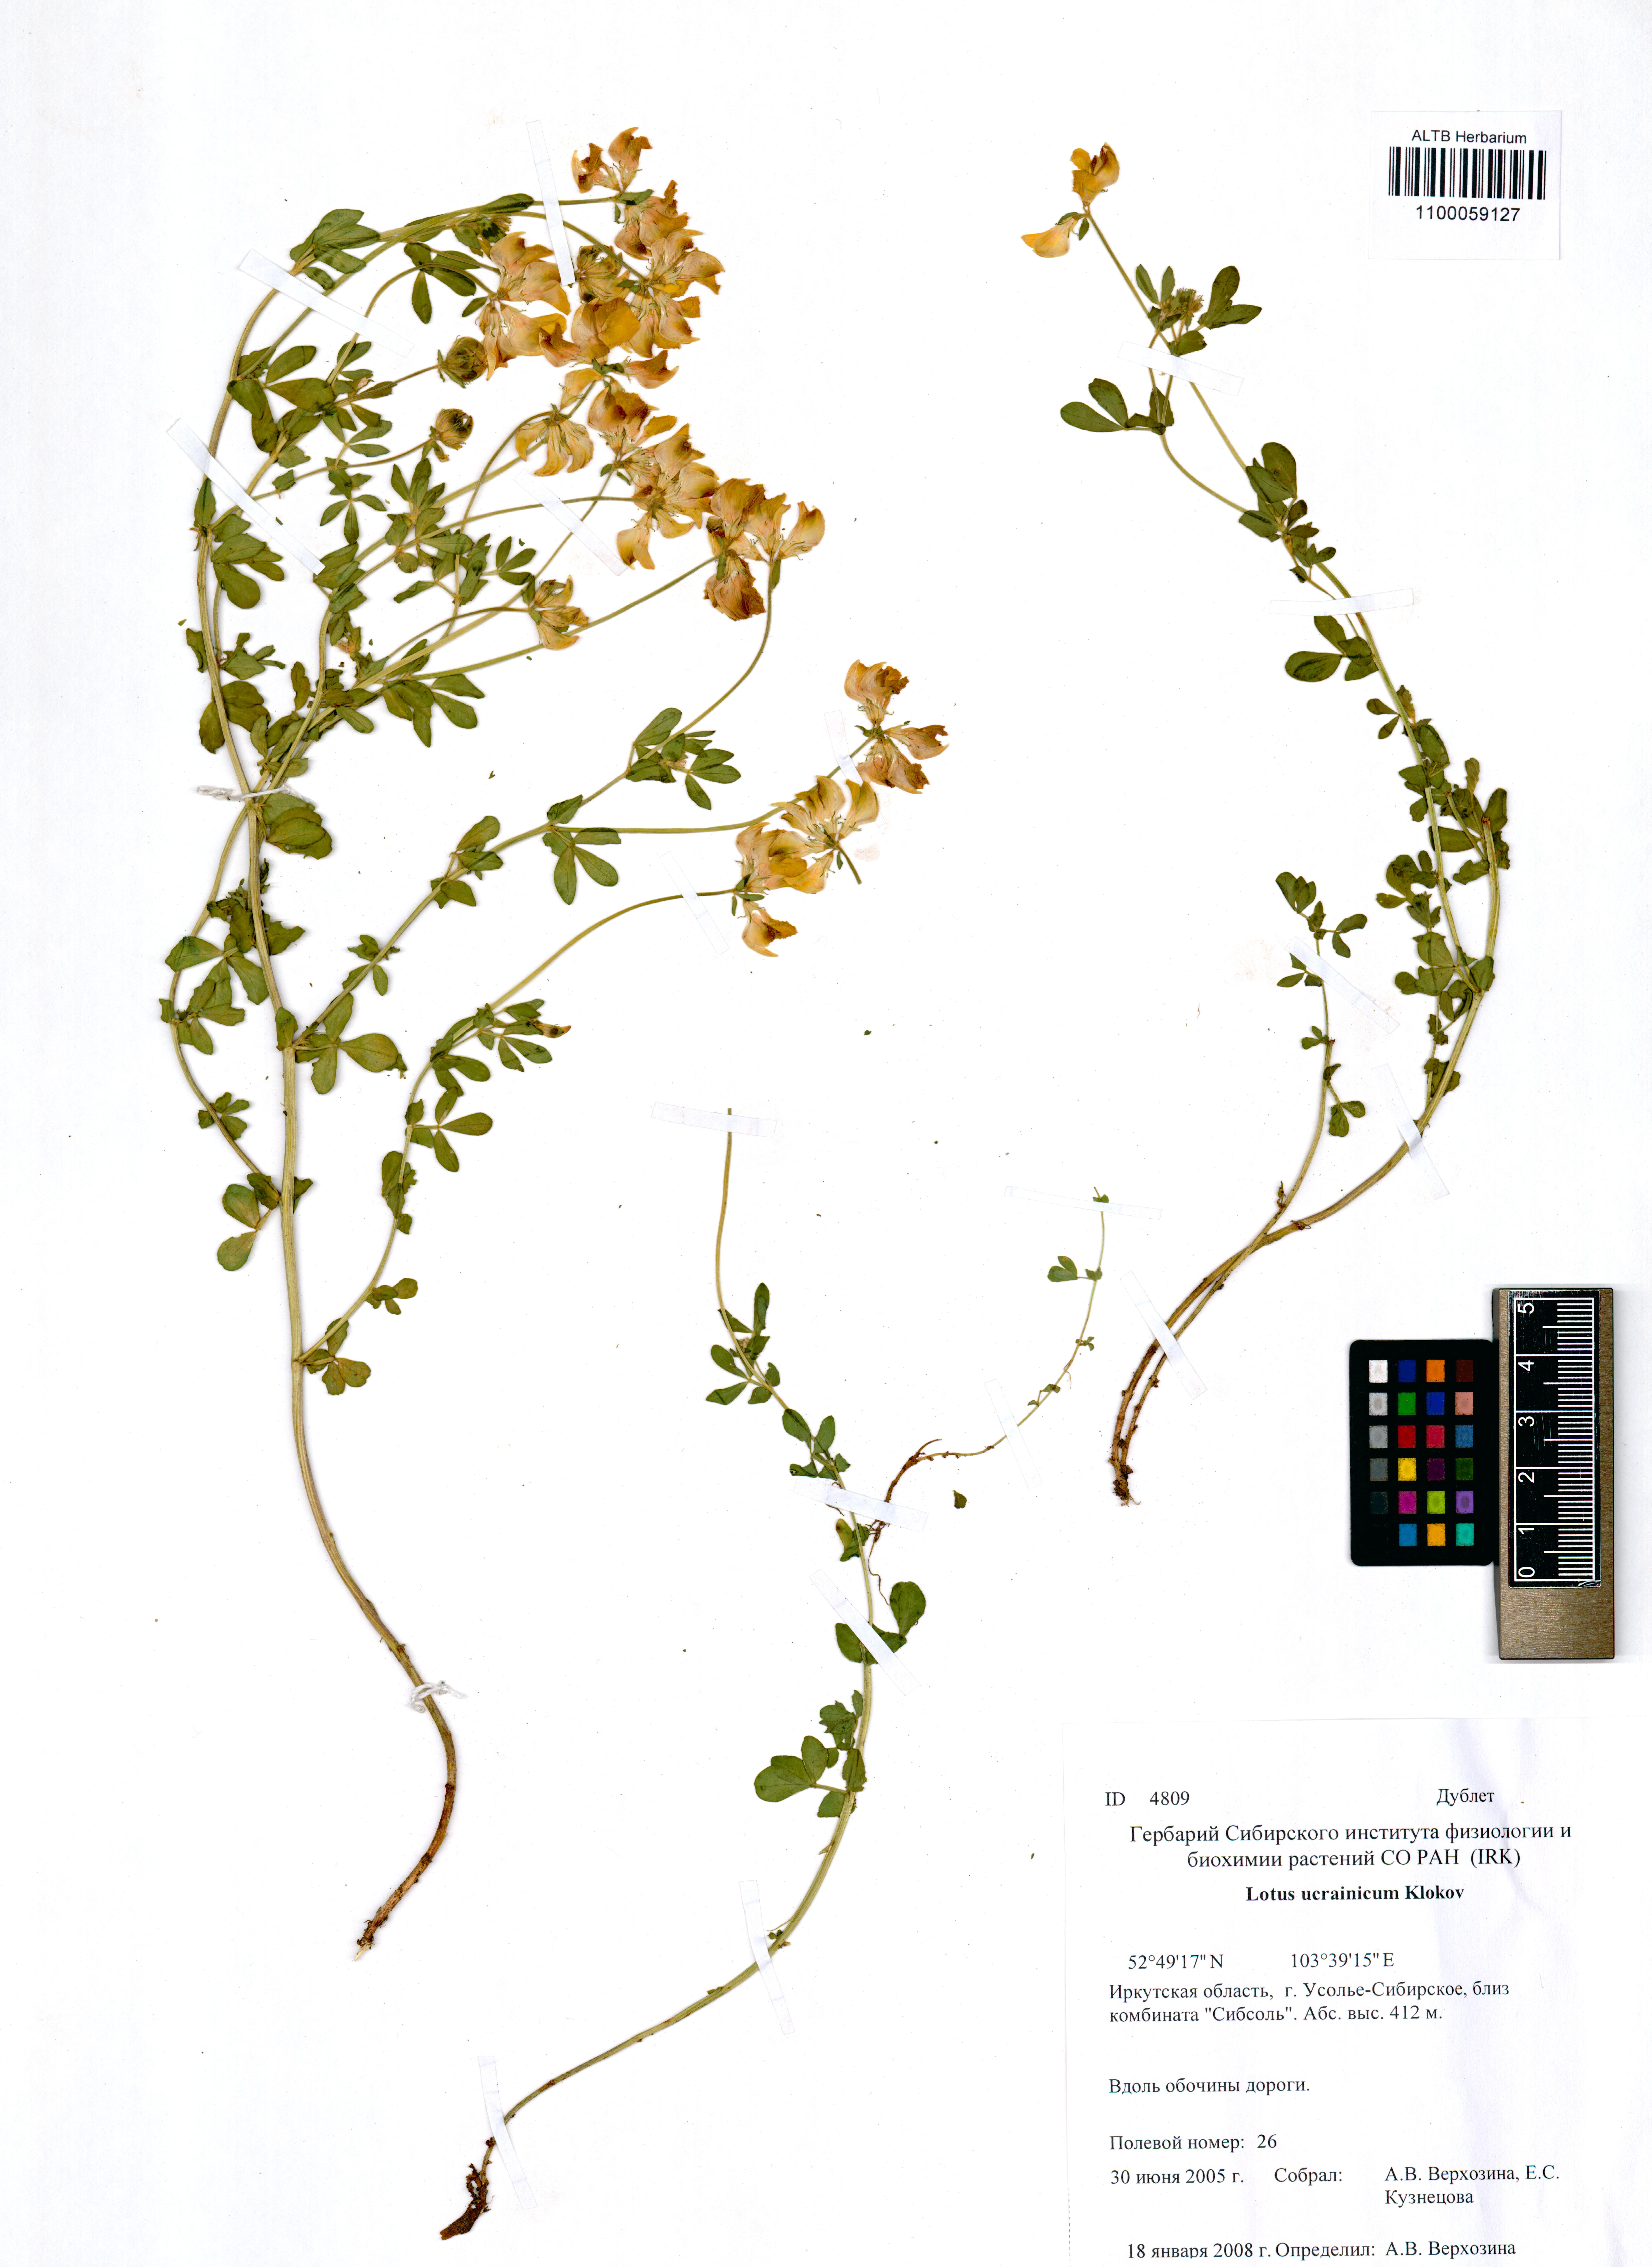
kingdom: Plantae
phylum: Tracheophyta
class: Magnoliopsida
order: Fabales
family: Fabaceae
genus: Lotus
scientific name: Lotus ucrainicus
